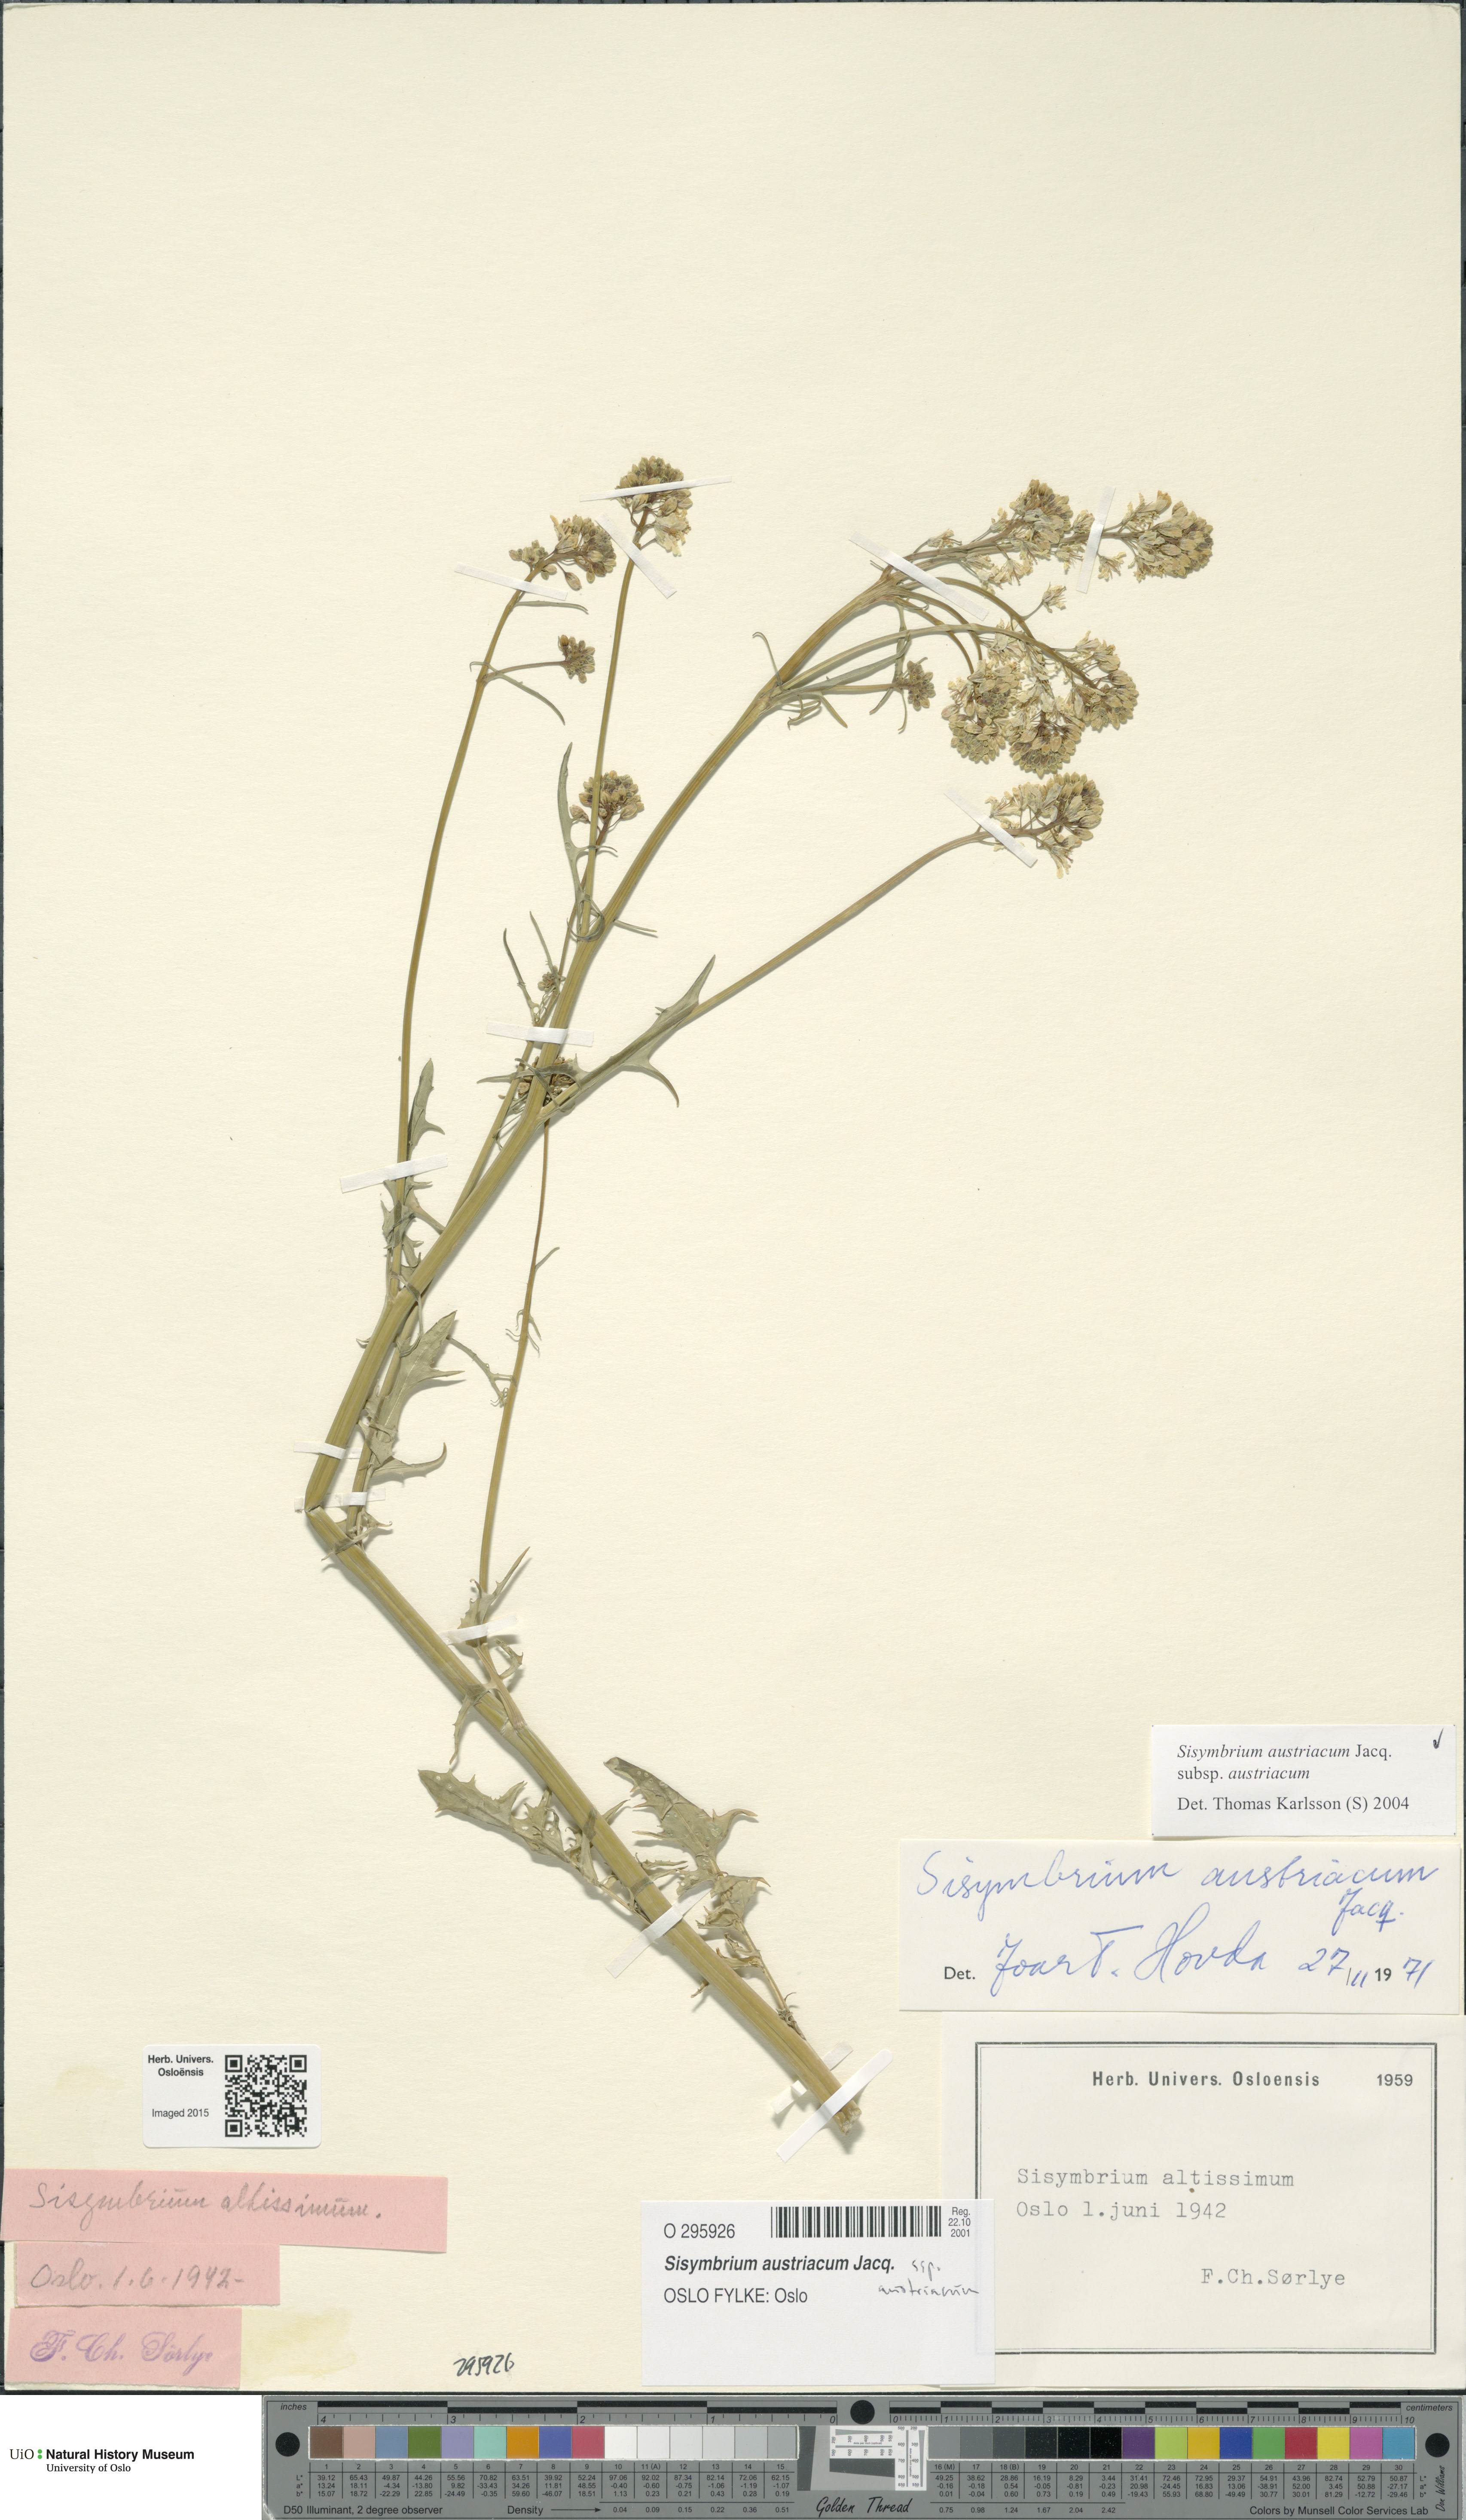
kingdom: Plantae
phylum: Tracheophyta
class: Magnoliopsida
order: Brassicales
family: Brassicaceae
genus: Sisymbrium
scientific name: Sisymbrium austriacum
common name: Jeweled rocket
